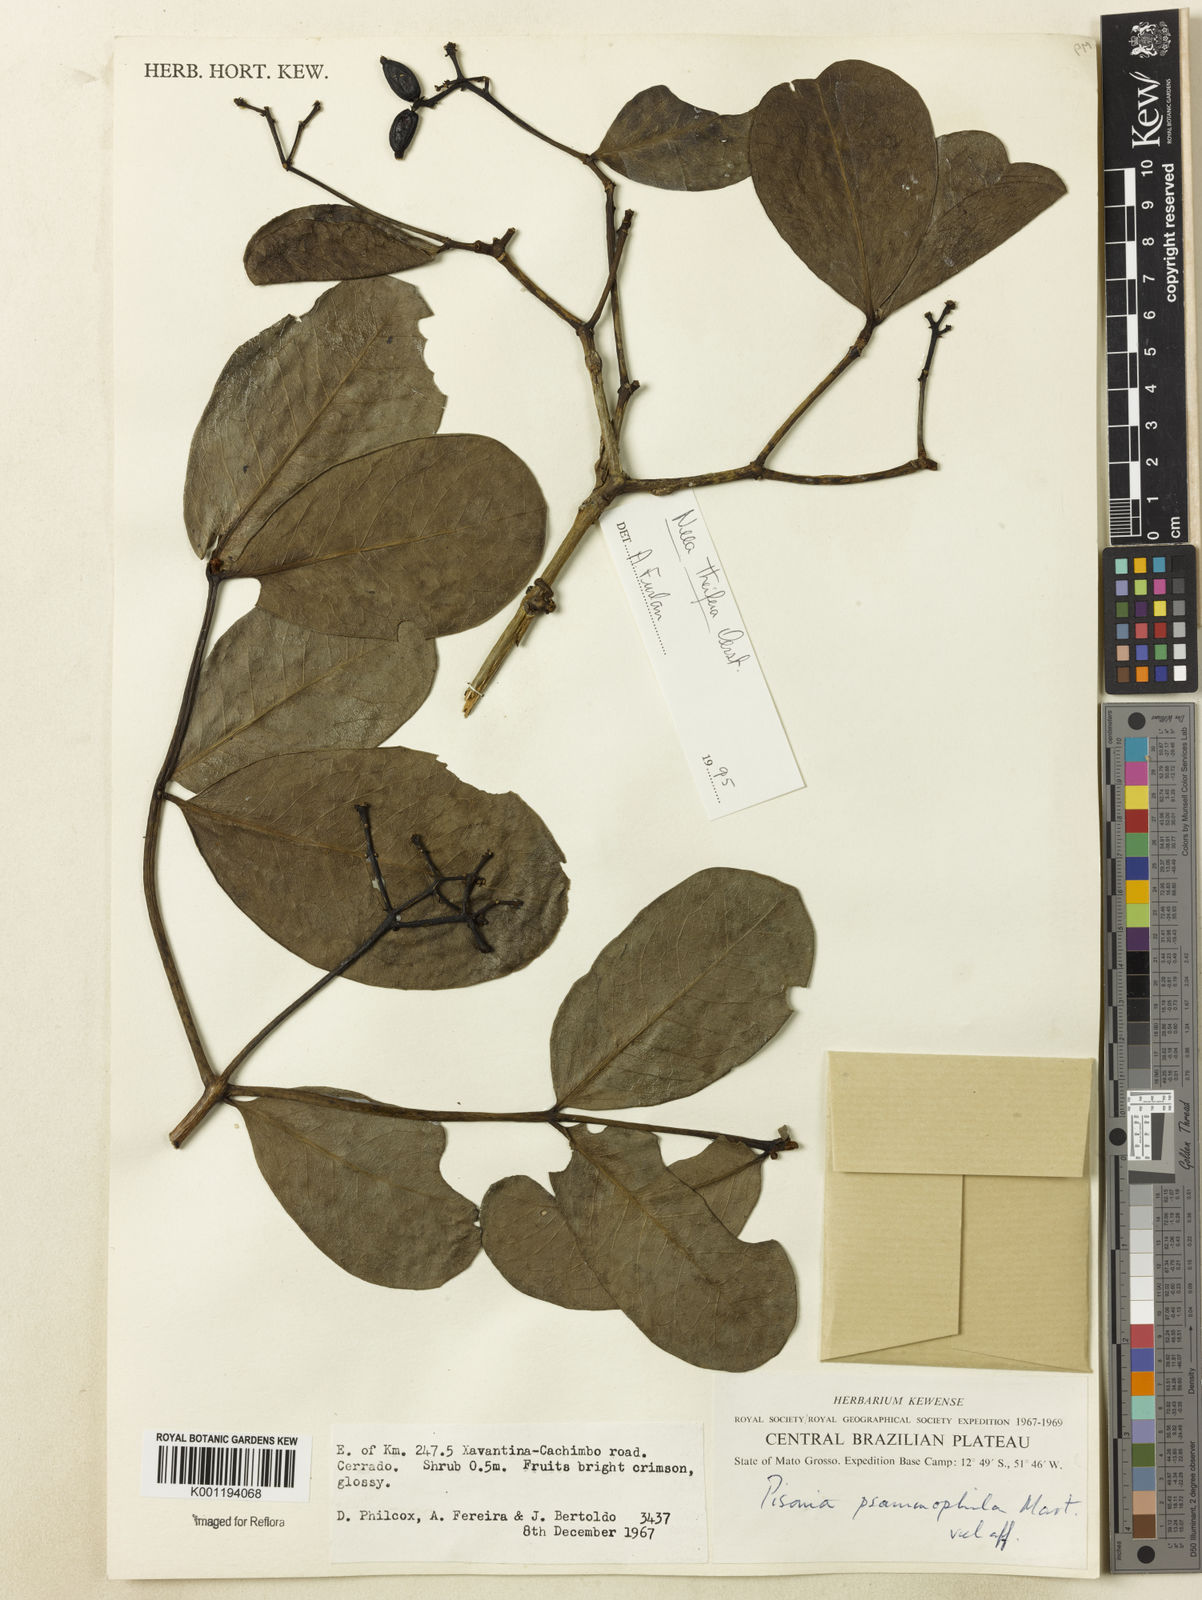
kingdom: Plantae
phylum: Tracheophyta
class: Magnoliopsida
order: Caryophyllales
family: Nyctaginaceae
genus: Guapira
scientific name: Guapira laxa
